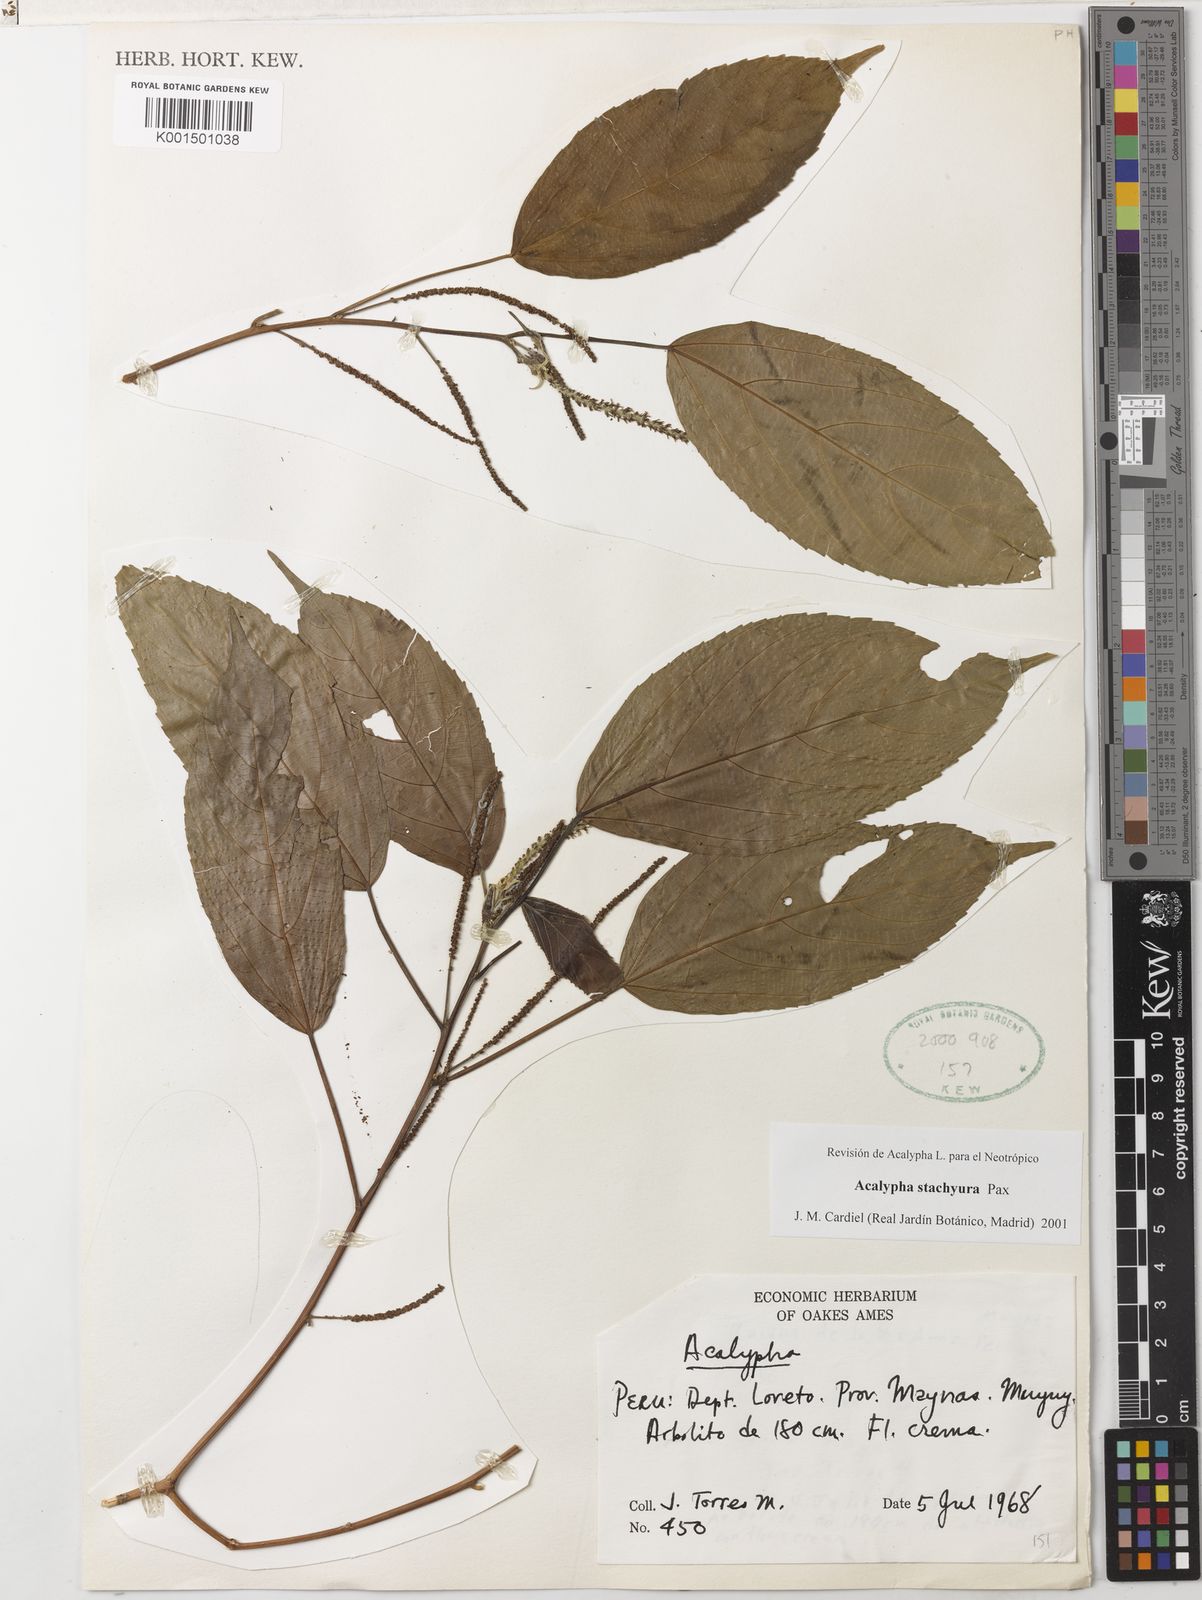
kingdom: Plantae
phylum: Tracheophyta
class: Magnoliopsida
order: Malpighiales
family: Euphorbiaceae
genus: Acalypha
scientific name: Acalypha stachyura
